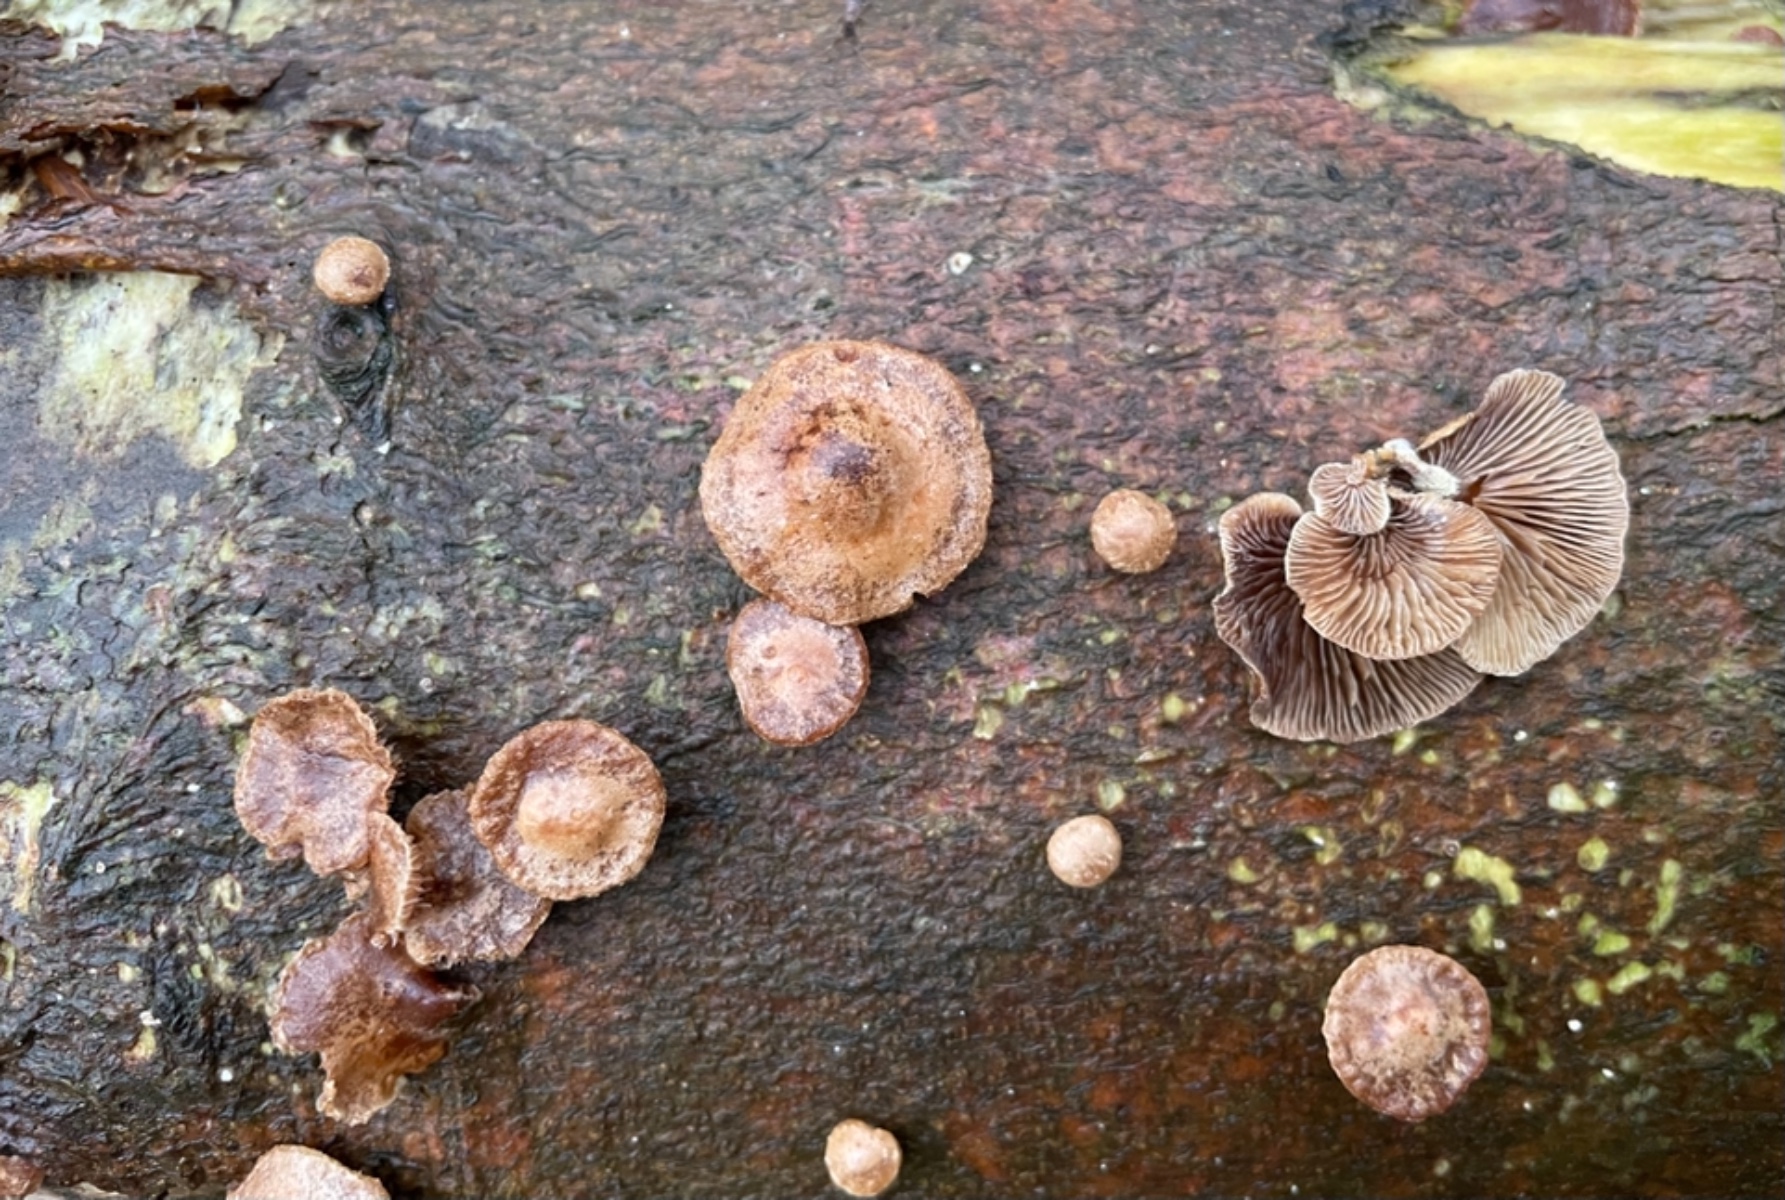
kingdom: Fungi
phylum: Basidiomycota
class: Agaricomycetes
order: Agaricales
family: Strophariaceae
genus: Deconica
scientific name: Deconica horizontalis
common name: ved-stråhat
